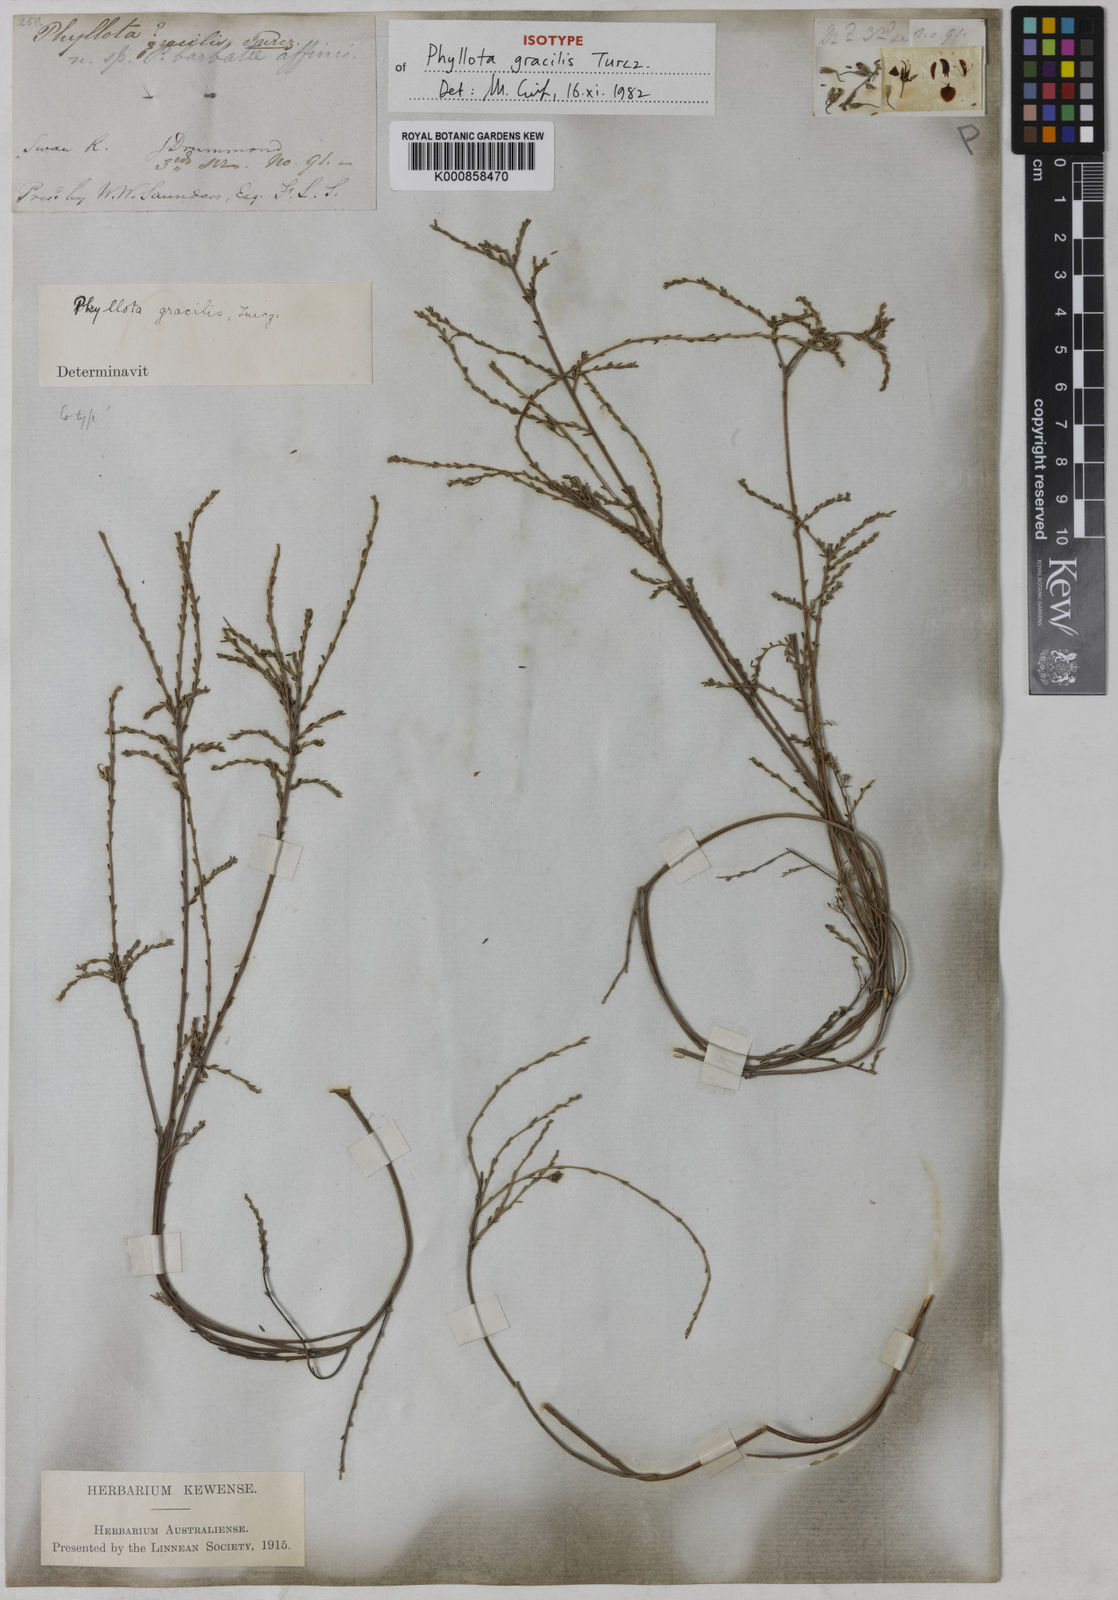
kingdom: Plantae
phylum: Tracheophyta
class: Magnoliopsida
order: Fabales
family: Fabaceae
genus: Phyllota
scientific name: Phyllota gracilis
